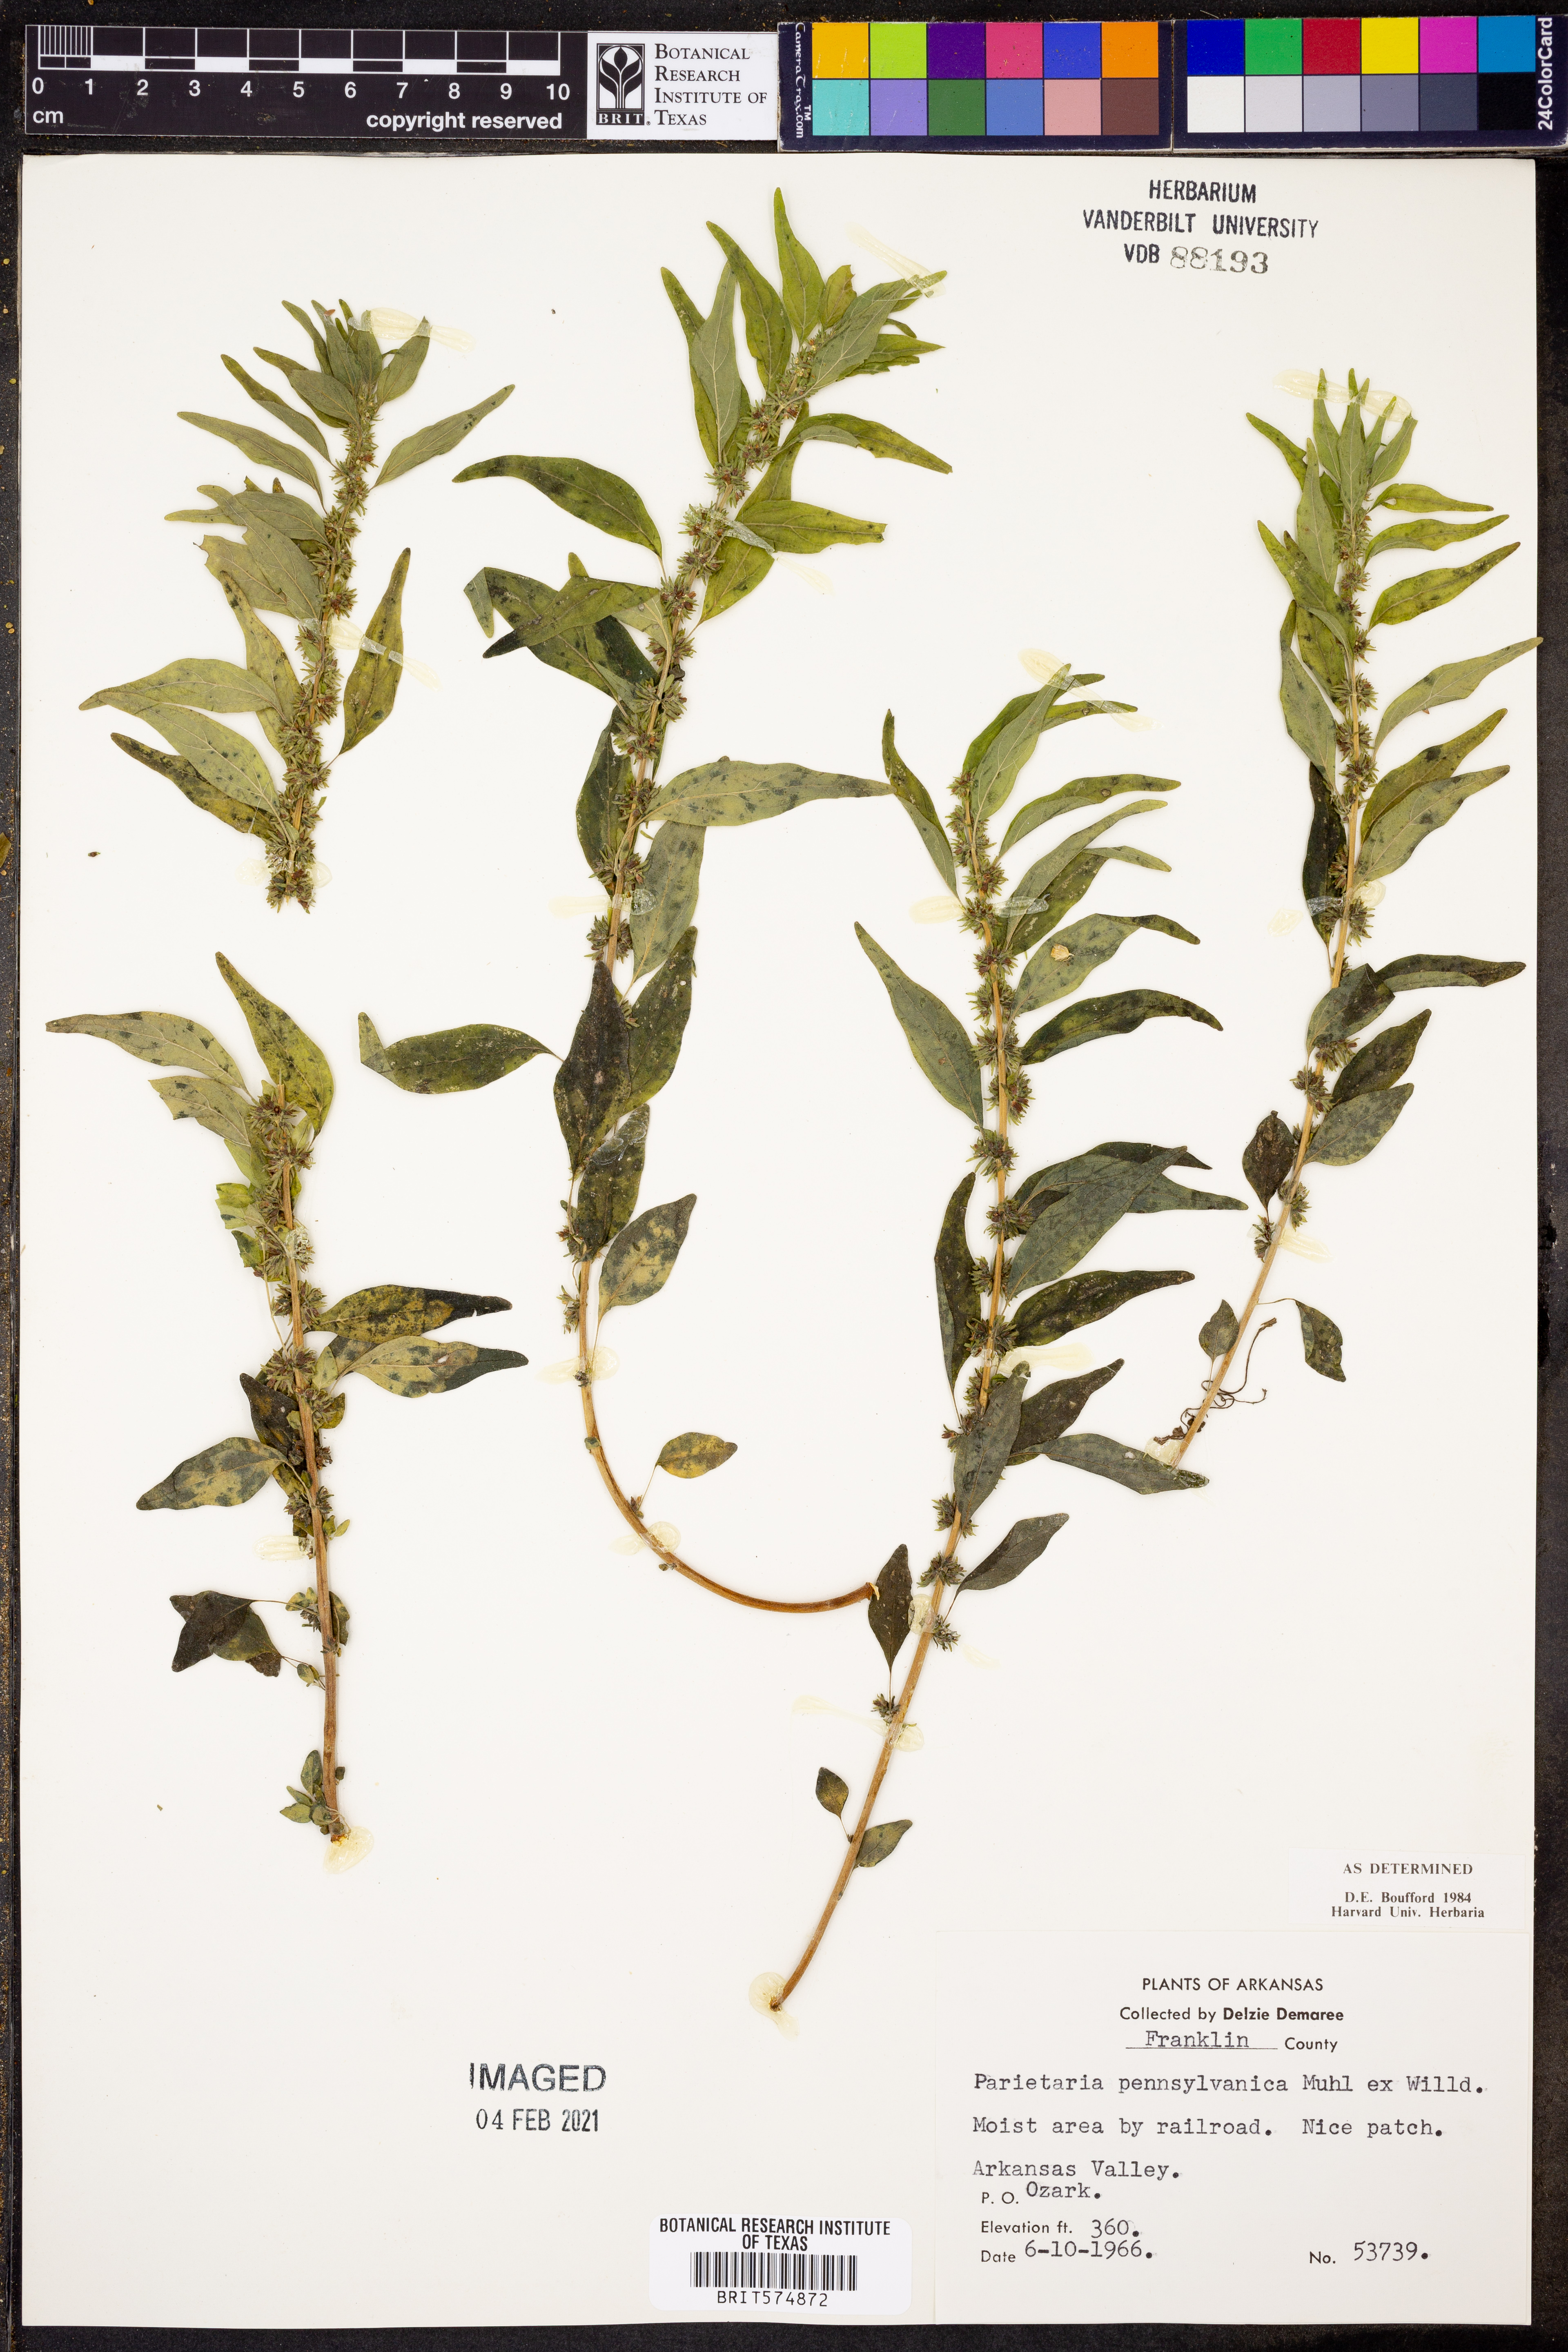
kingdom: Plantae
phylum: Tracheophyta
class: Magnoliopsida
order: Rosales
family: Urticaceae
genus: Parietaria
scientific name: Parietaria pensylvanica
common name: Pennsylvania pellitory
